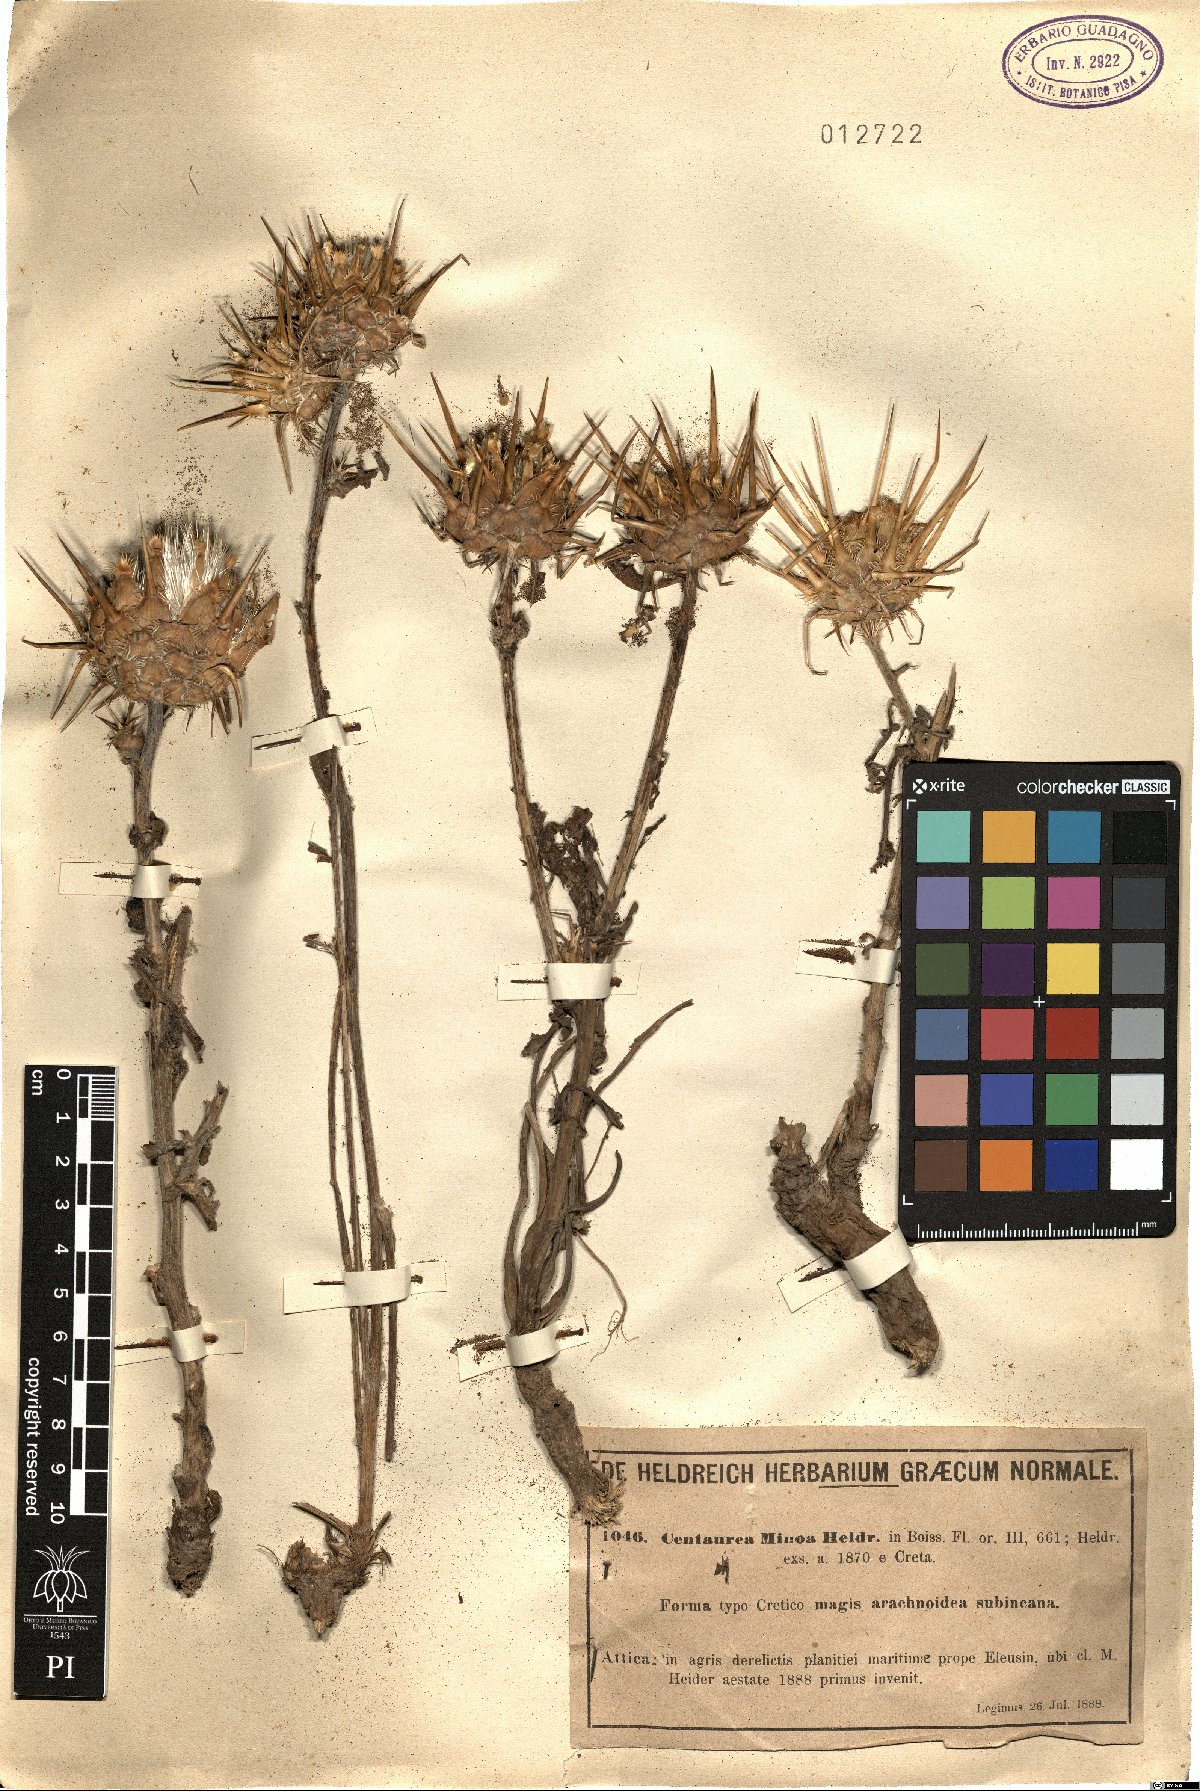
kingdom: Plantae
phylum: Tracheophyta
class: Magnoliopsida
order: Asterales
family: Asteraceae
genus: Centaurea
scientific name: Centaurea spruneri
